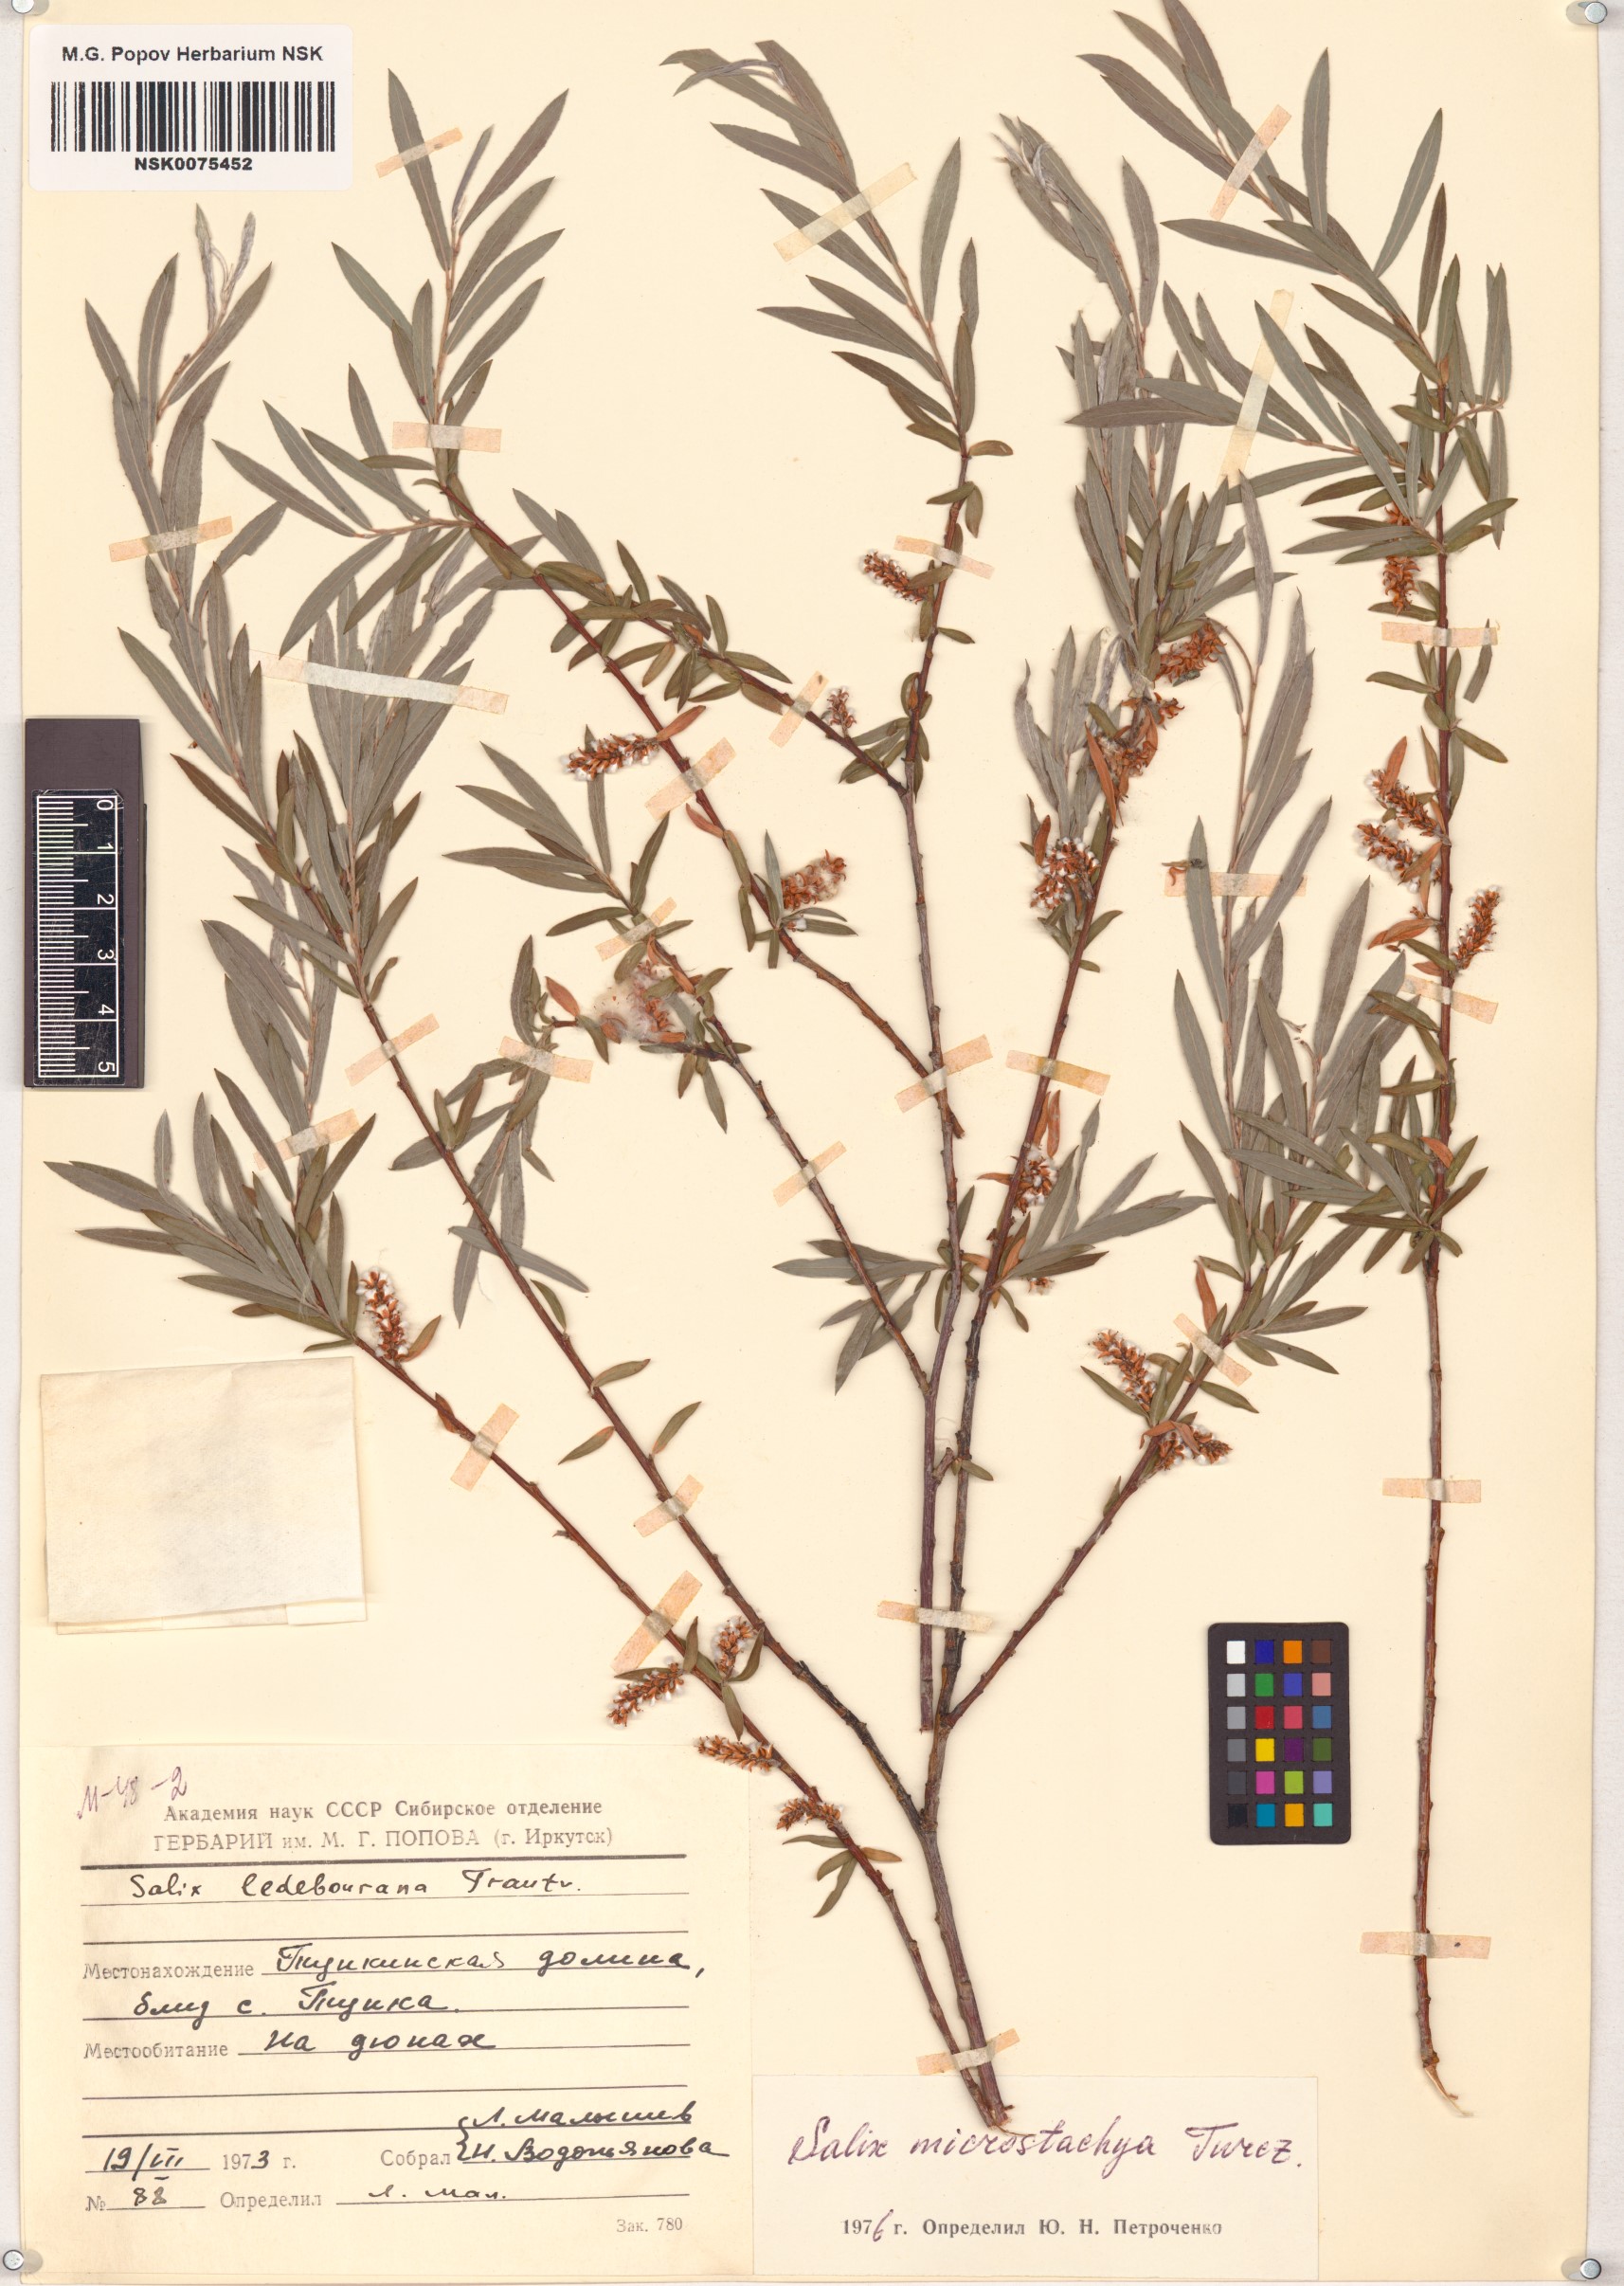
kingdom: Plantae
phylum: Tracheophyta
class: Magnoliopsida
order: Malpighiales
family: Salicaceae
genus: Salix
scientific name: Salix microstachya
